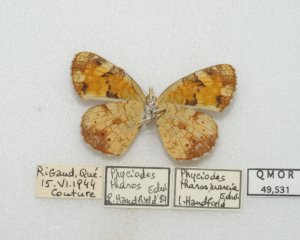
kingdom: Animalia
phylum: Arthropoda
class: Insecta
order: Lepidoptera
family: Nymphalidae
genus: Phyciodes
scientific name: Phyciodes tharos
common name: Northern Crescent
